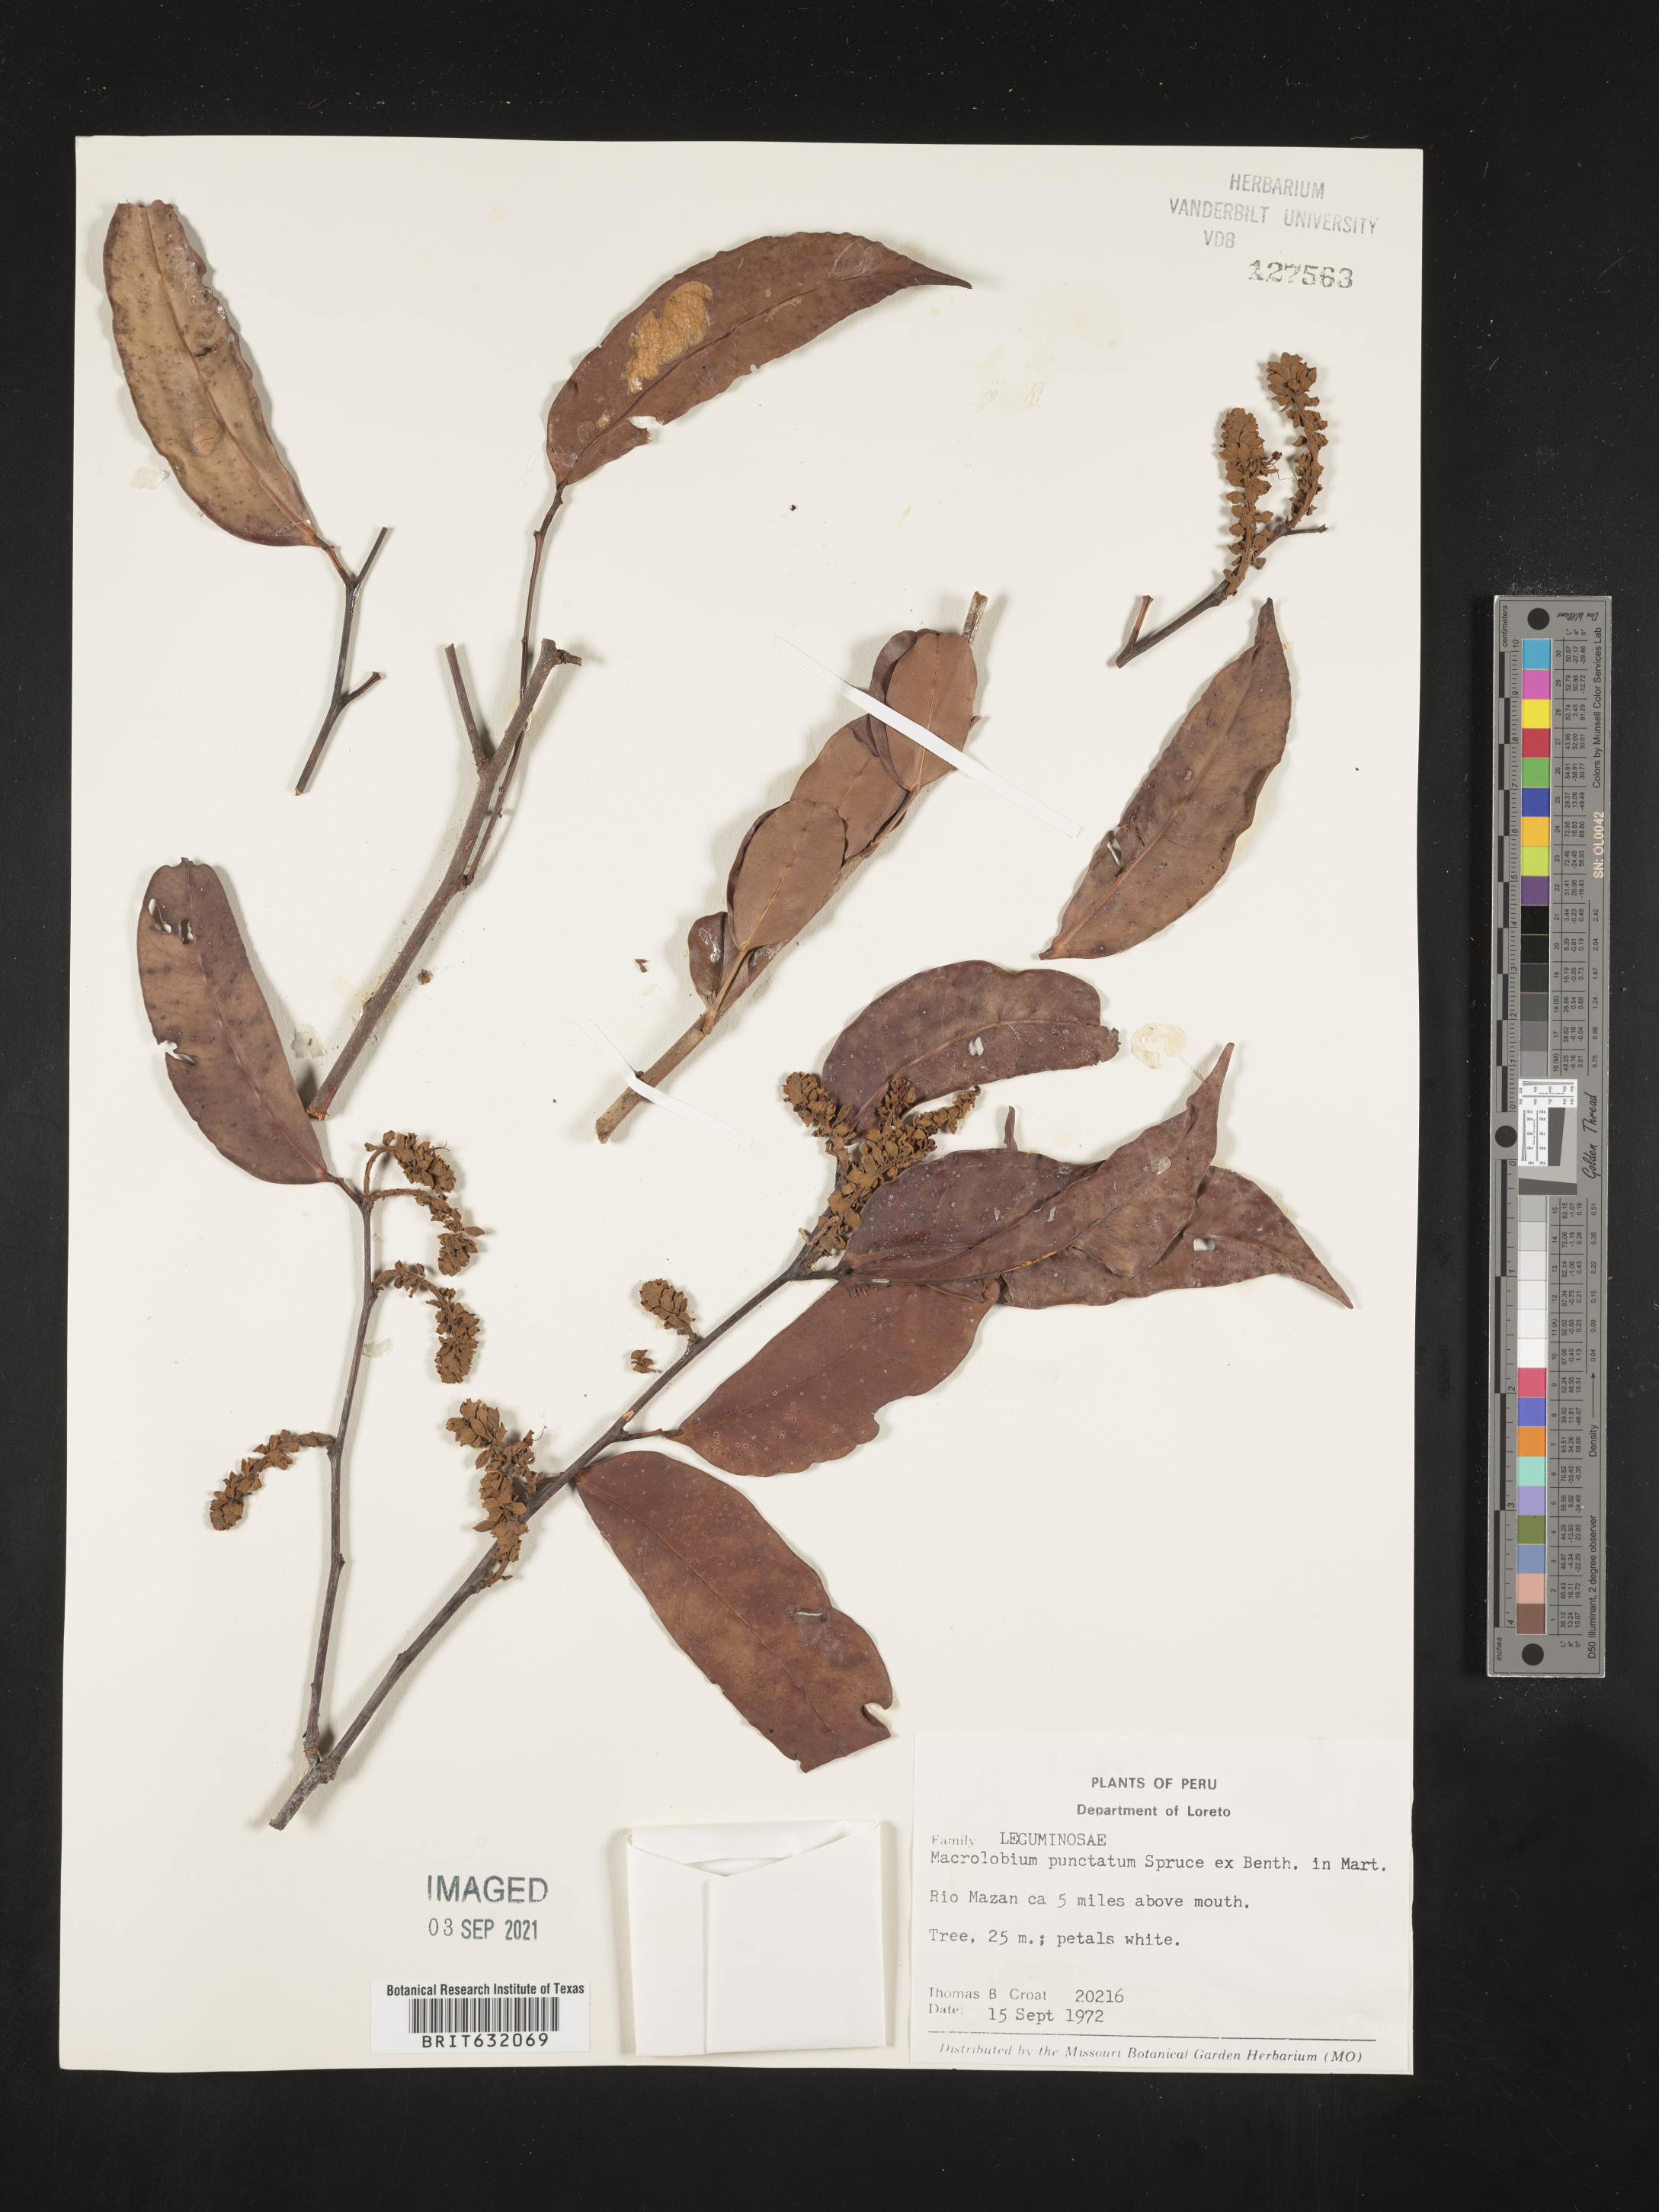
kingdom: Plantae
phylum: Tracheophyta
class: Magnoliopsida
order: Fabales
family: Fabaceae
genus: Macrolobium
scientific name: Macrolobium
